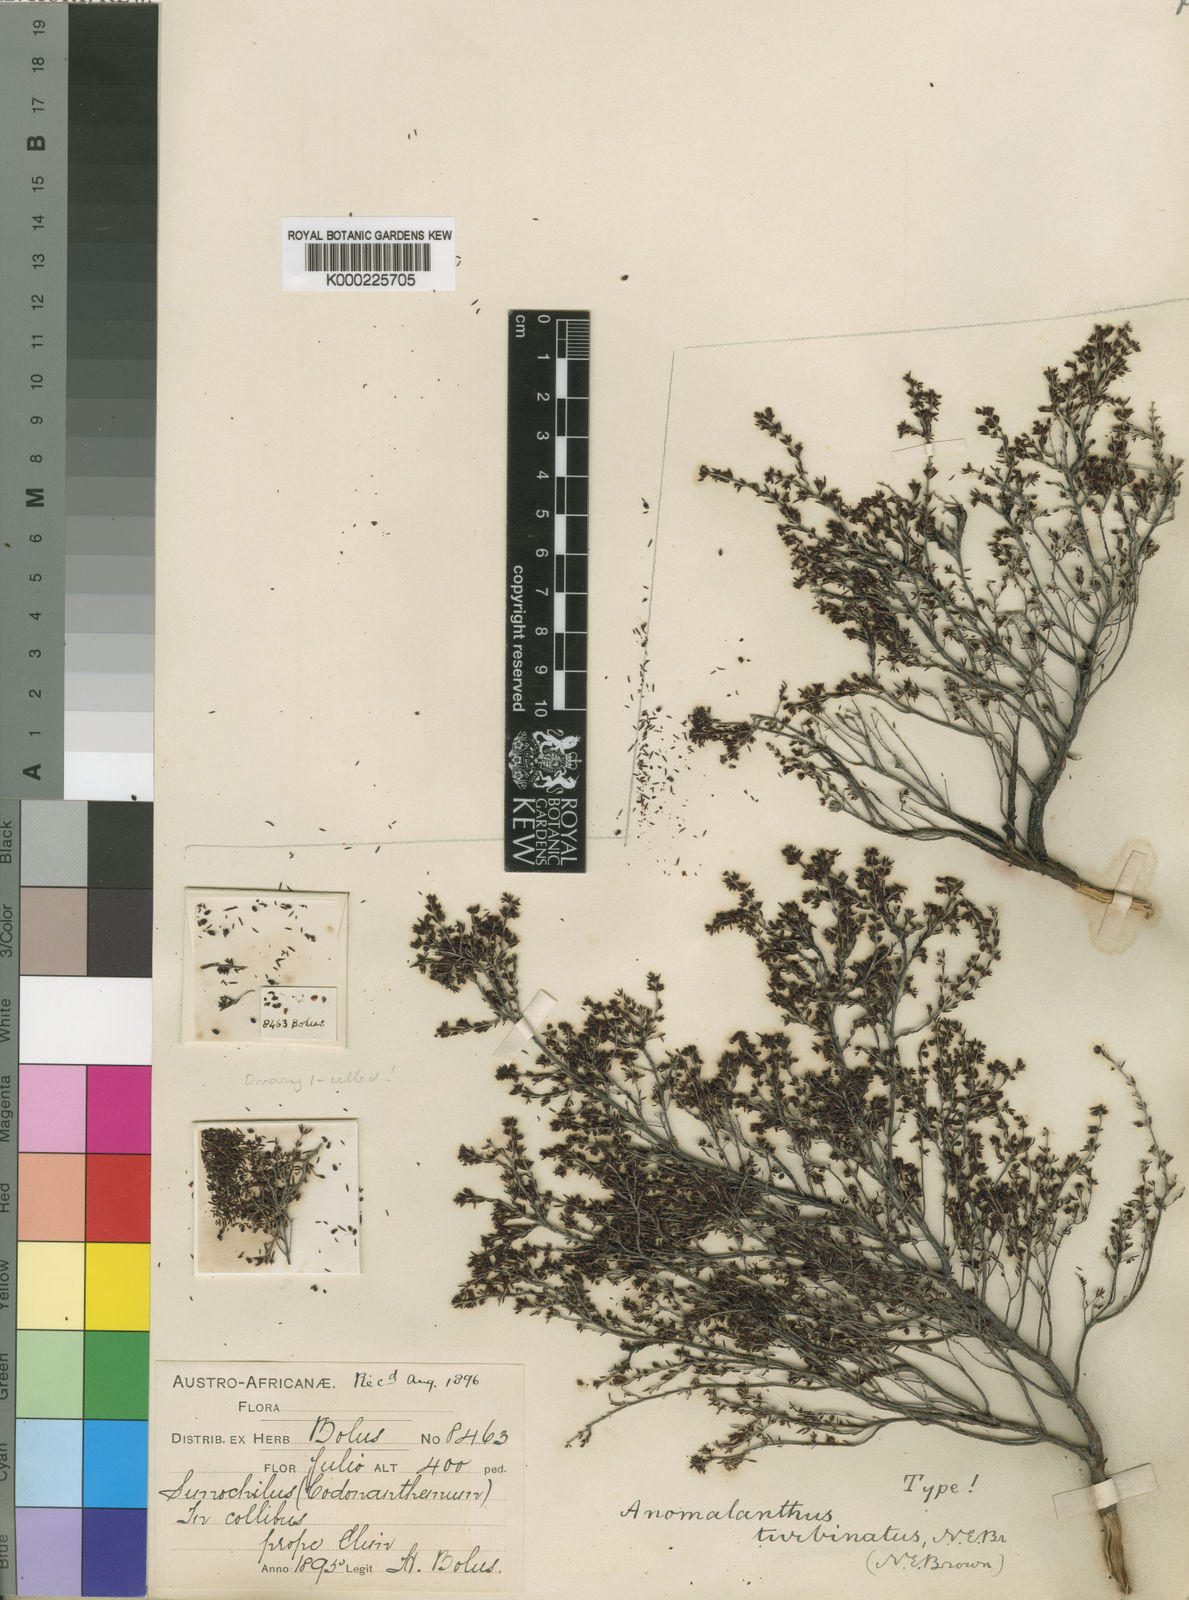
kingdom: Plantae
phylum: Tracheophyta
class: Magnoliopsida
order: Ericales
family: Ericaceae
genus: Erica
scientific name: Erica anguliger
